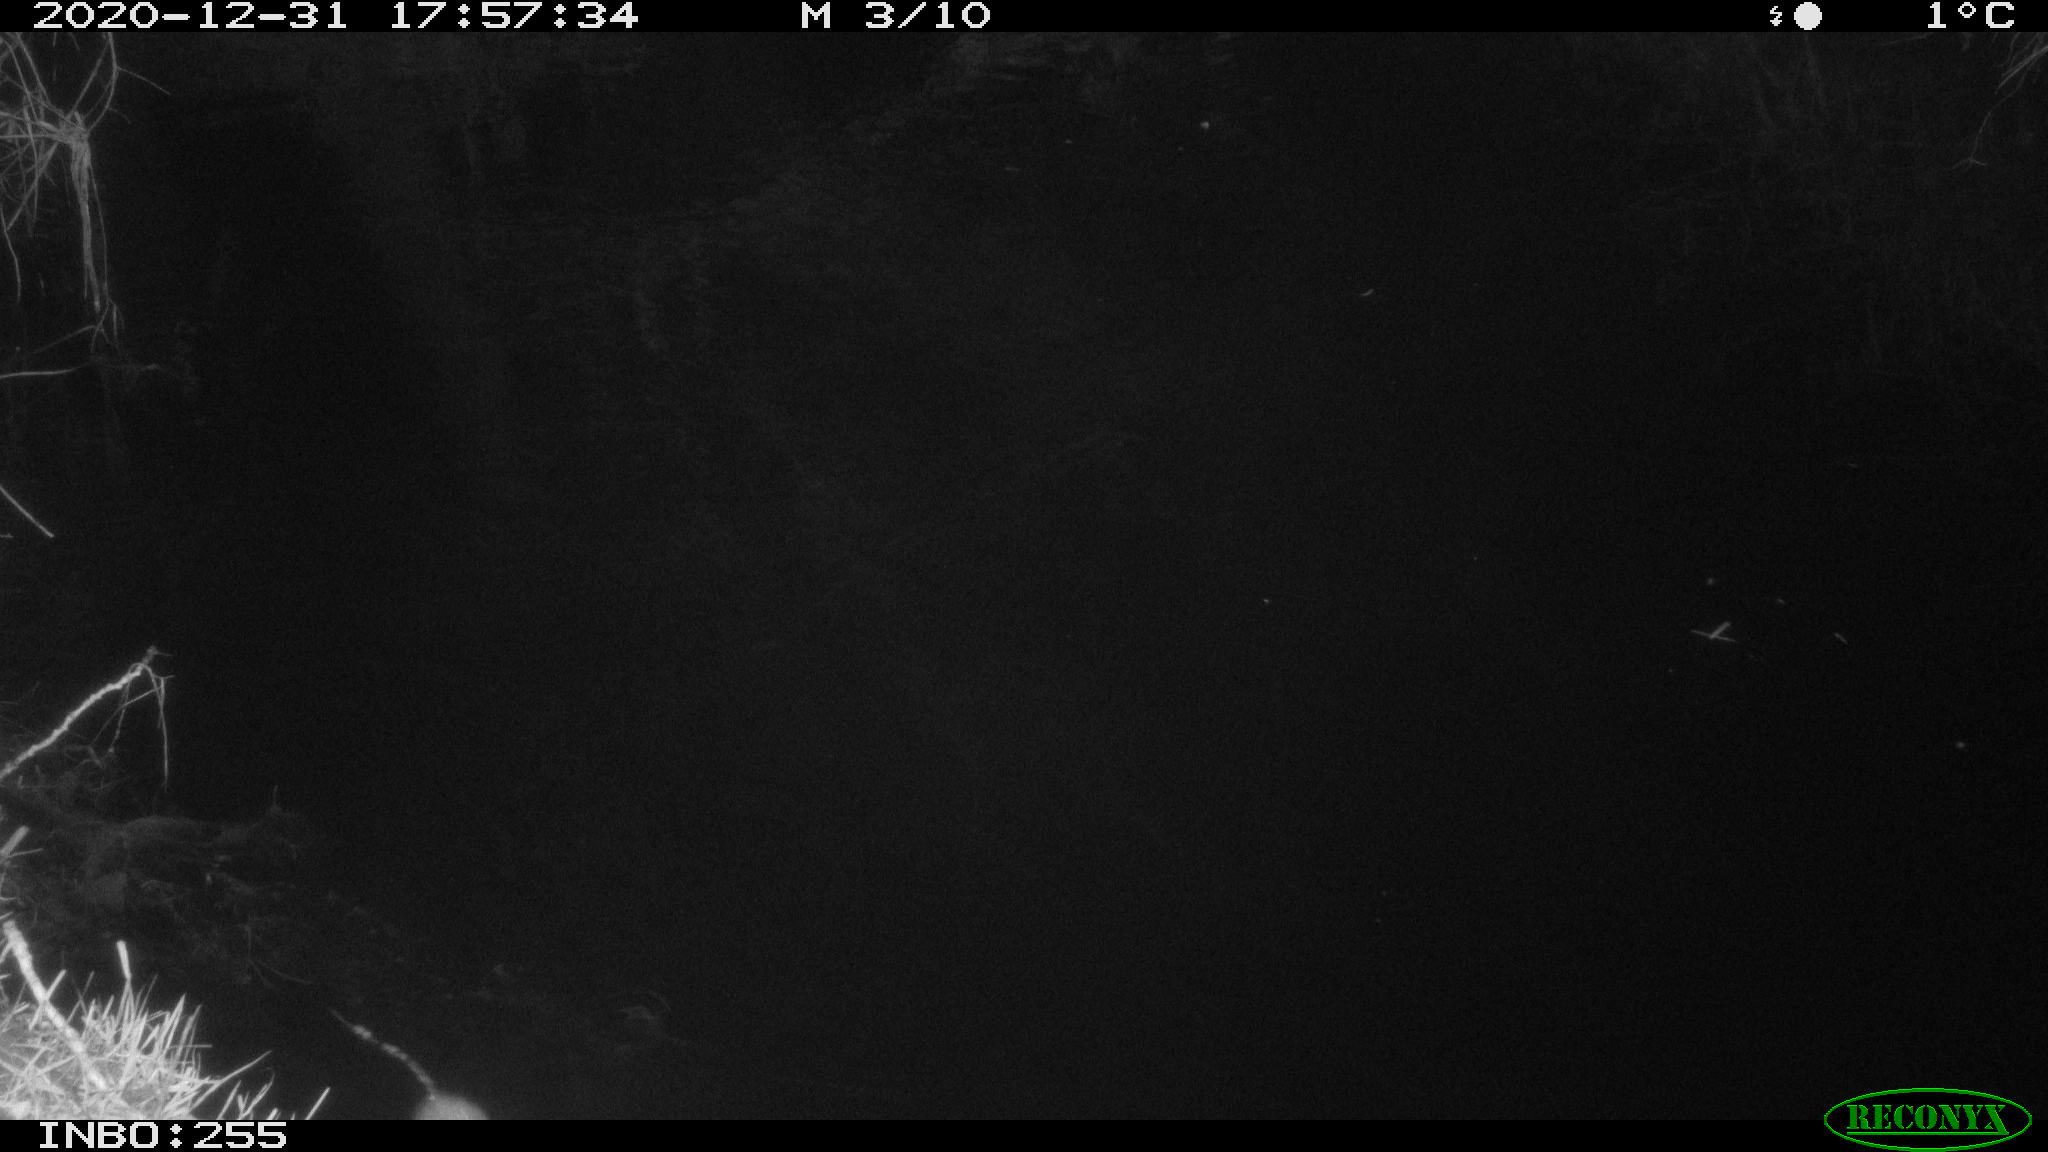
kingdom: Animalia
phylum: Chordata
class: Mammalia
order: Rodentia
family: Muridae
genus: Rattus
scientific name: Rattus norvegicus
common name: Brown rat
